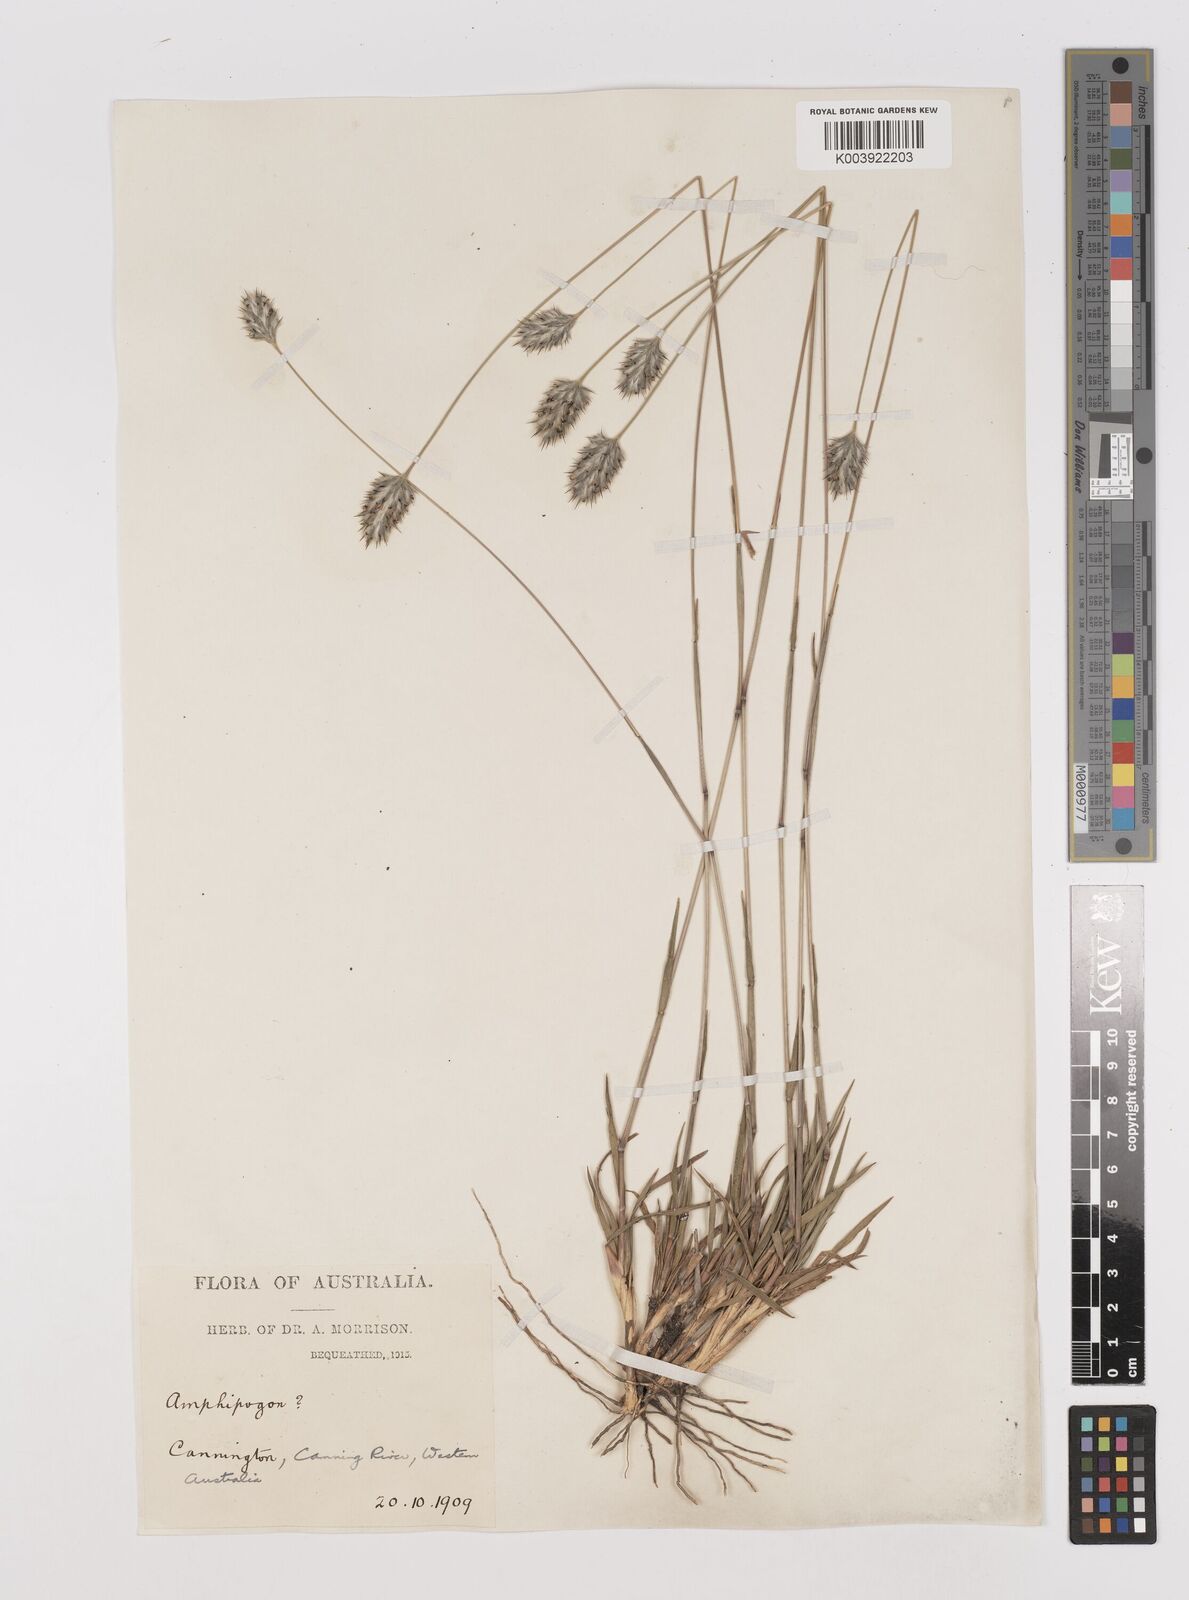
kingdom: Plantae
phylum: Tracheophyta
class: Liliopsida
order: Poales
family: Poaceae
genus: Neurachne
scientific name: Neurachne alopecuroidea
